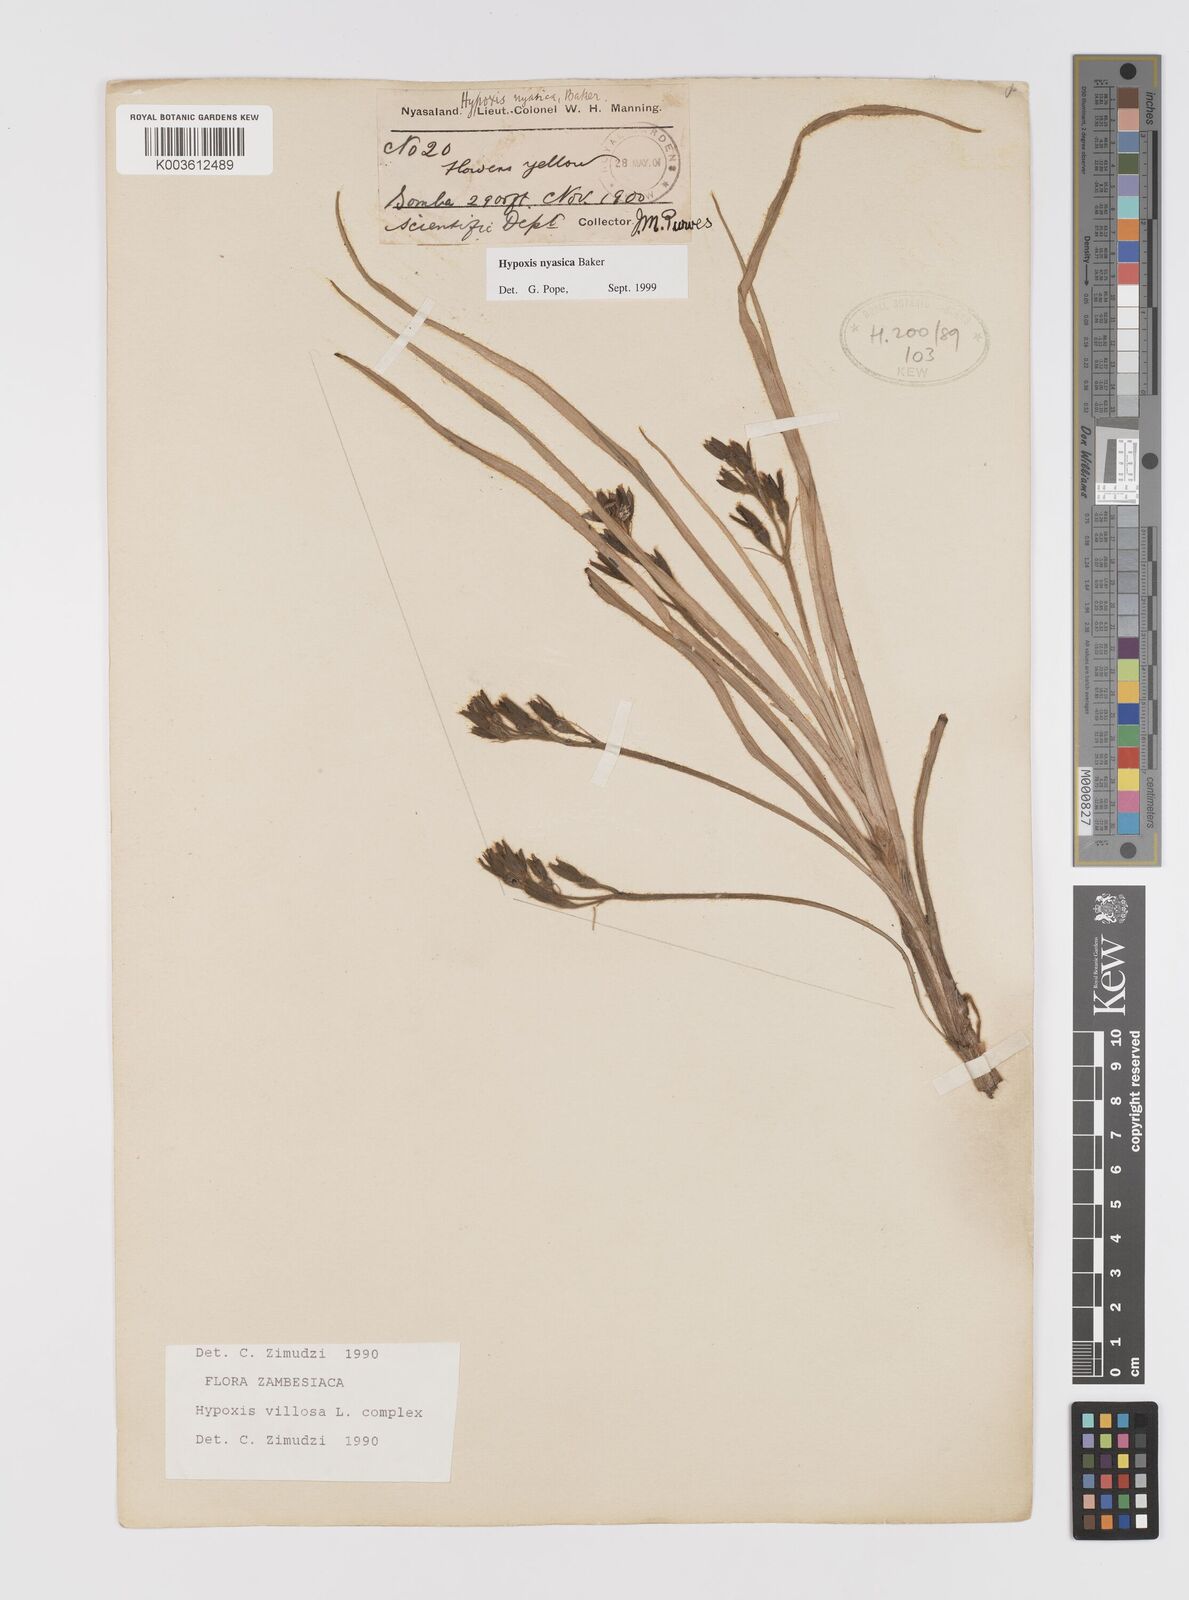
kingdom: Plantae
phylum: Tracheophyta
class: Liliopsida
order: Asparagales
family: Hypoxidaceae
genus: Hypoxis
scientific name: Hypoxis nyasica
